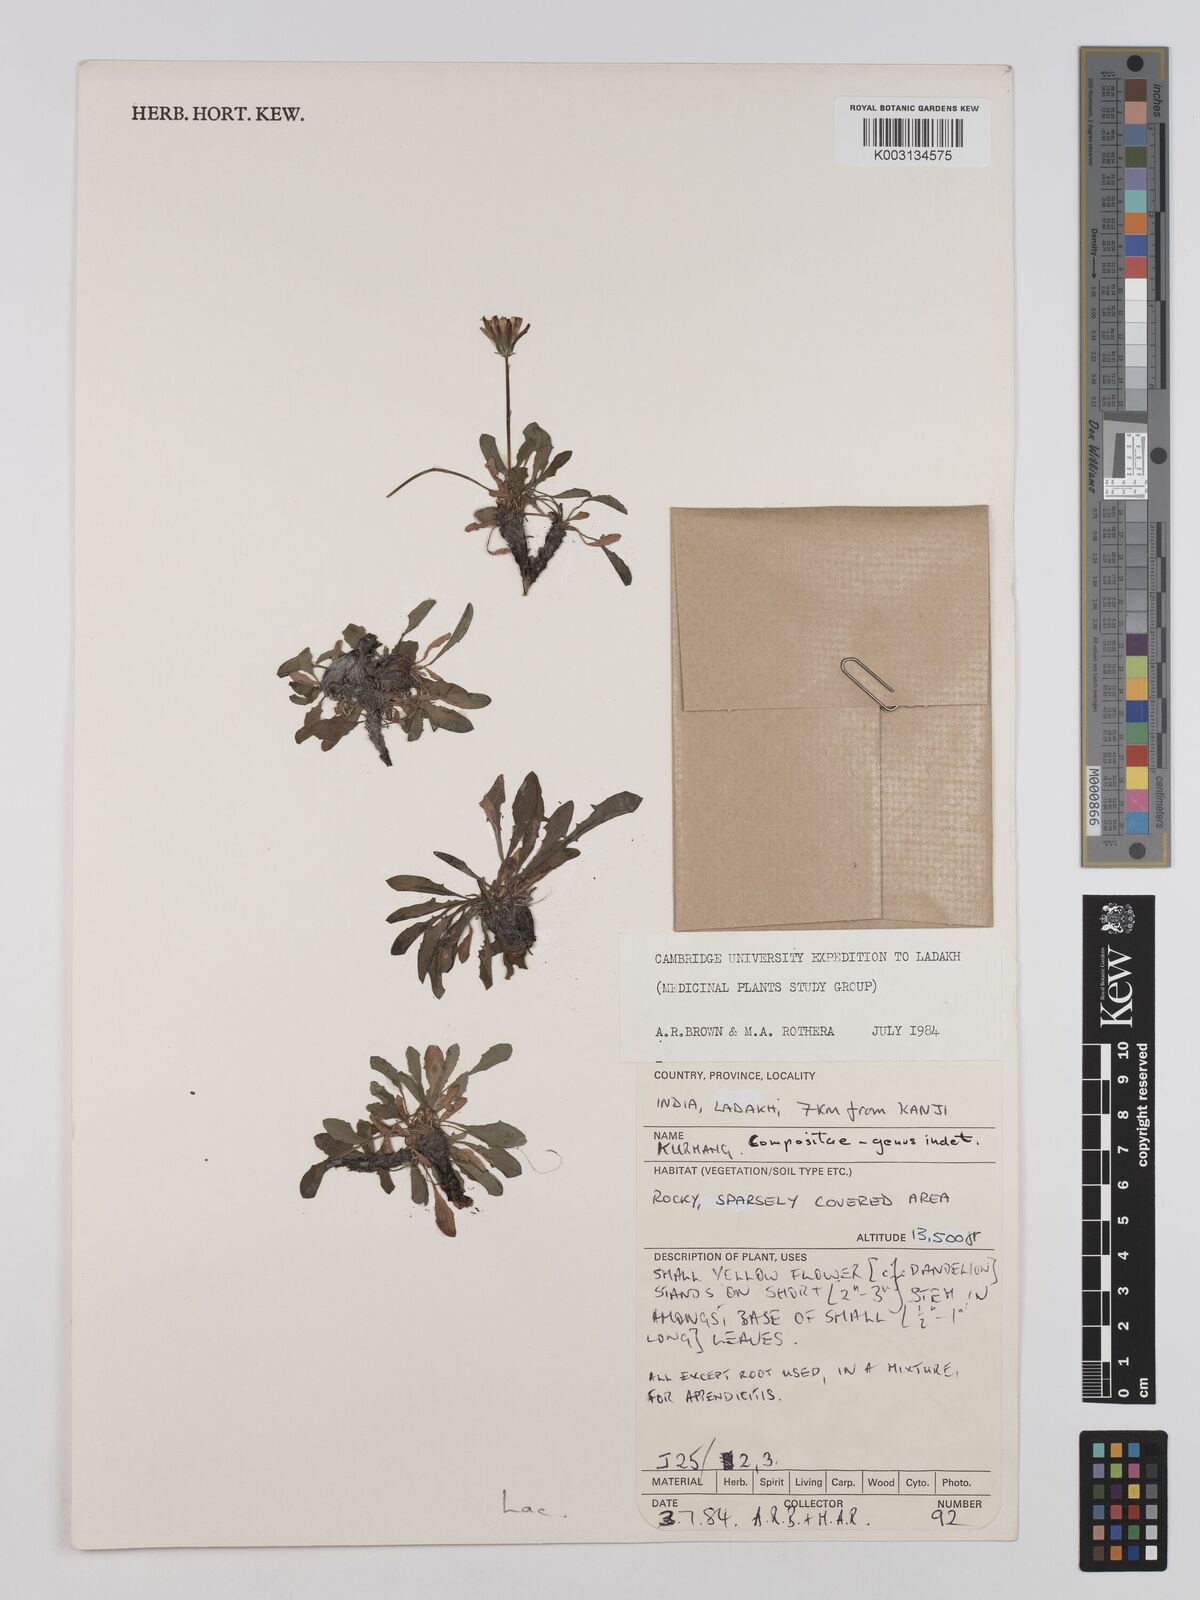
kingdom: Plantae
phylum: Tracheophyta
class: Magnoliopsida
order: Asterales
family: Asteraceae
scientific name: Asteraceae
